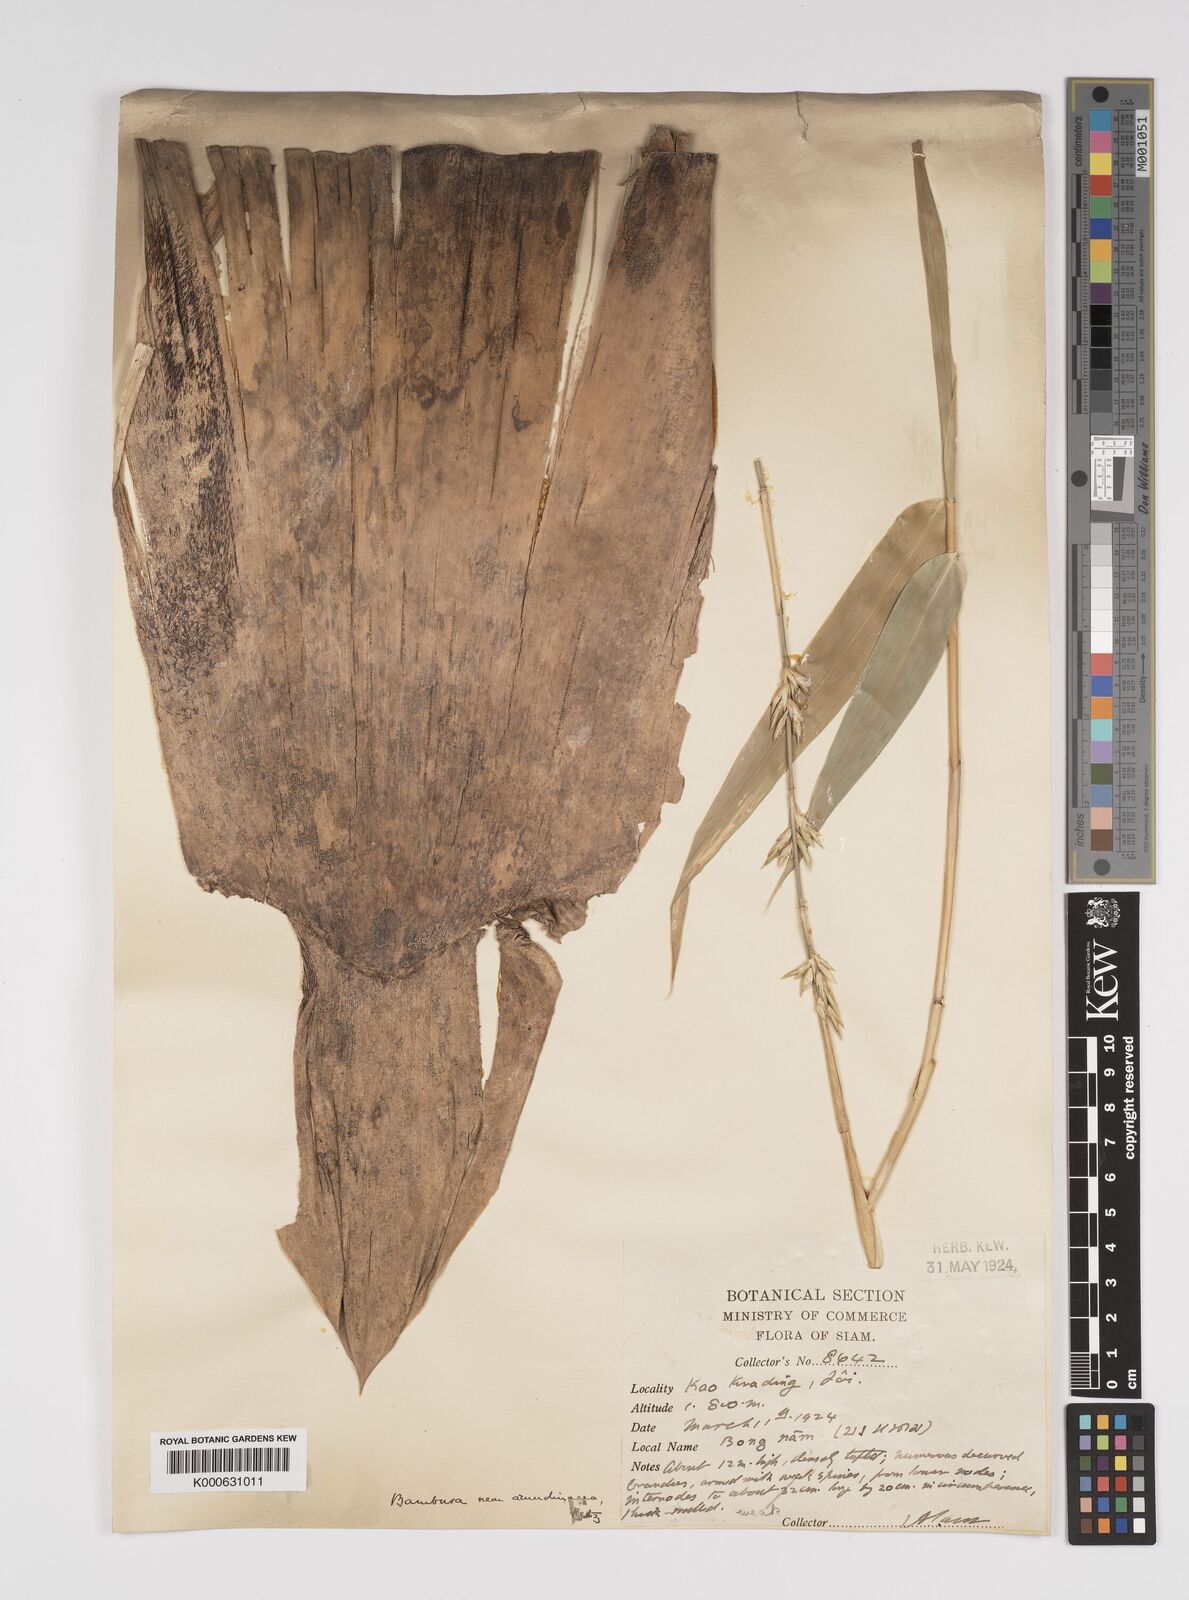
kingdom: Plantae
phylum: Tracheophyta
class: Liliopsida
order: Poales
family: Poaceae
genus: Bambusa
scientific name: Bambusa
